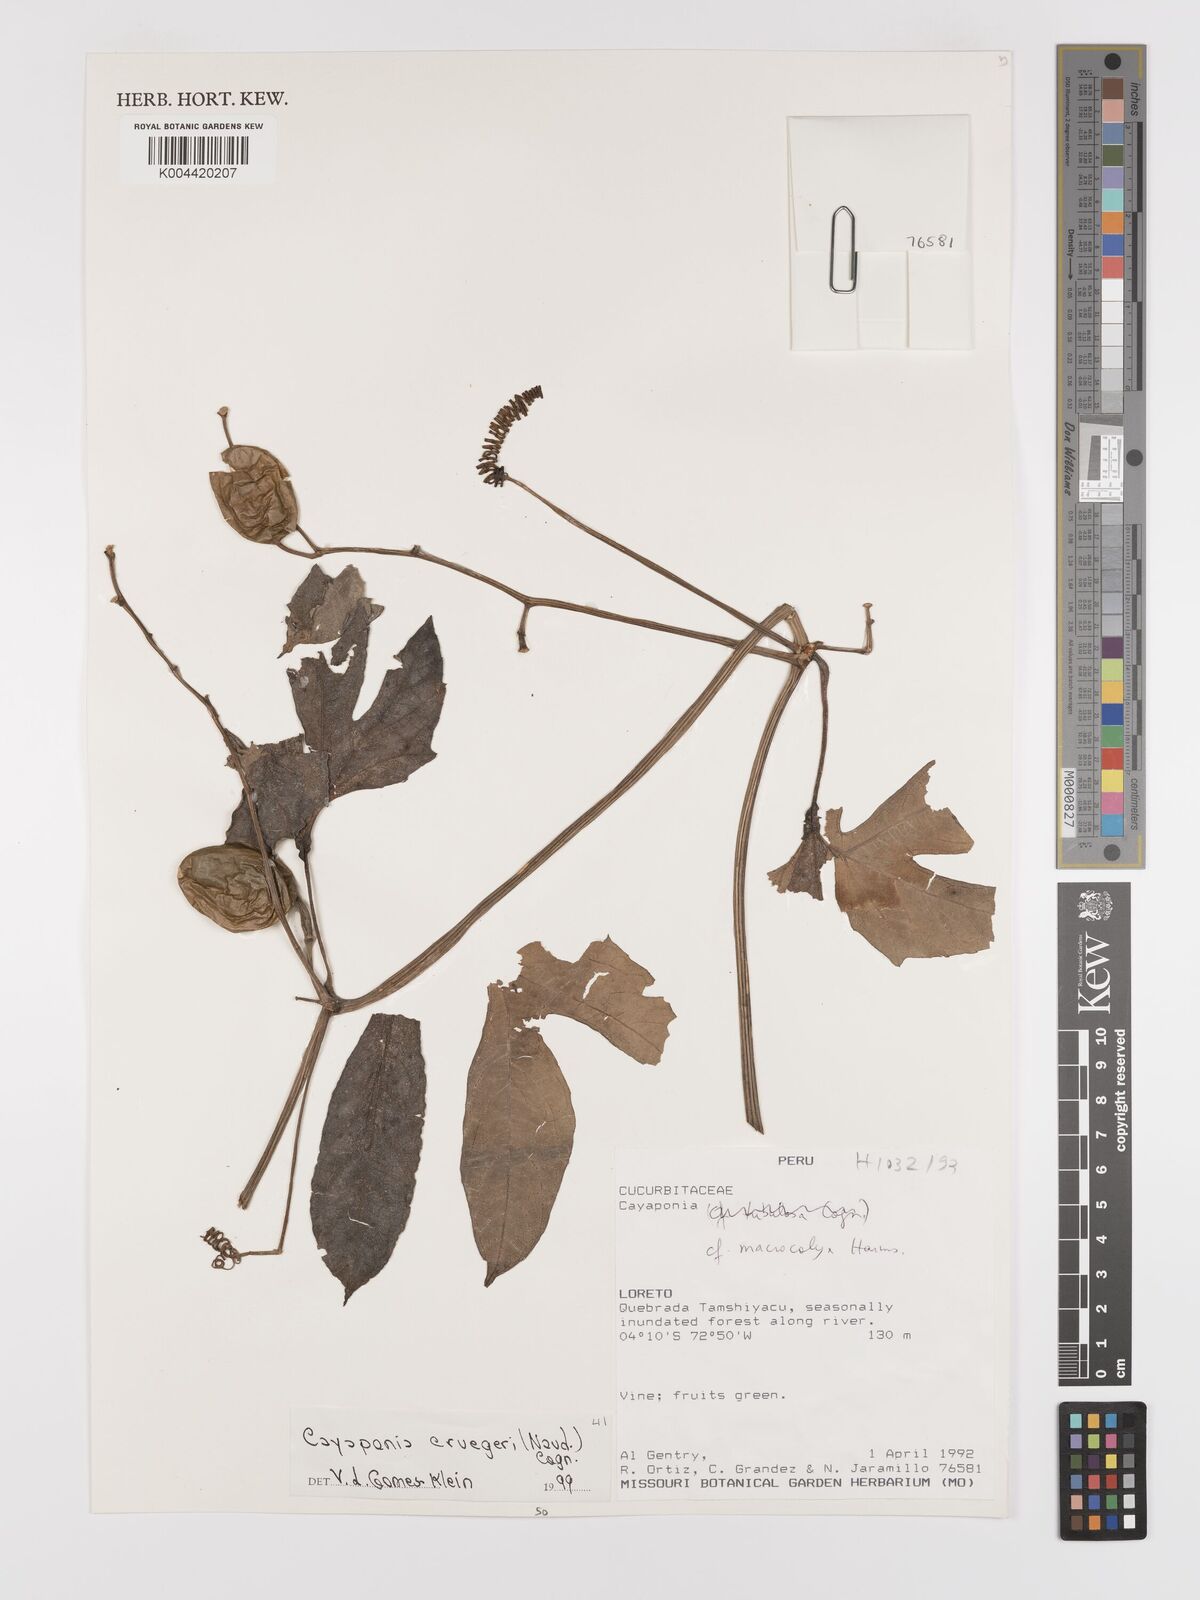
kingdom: Plantae
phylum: Tracheophyta
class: Magnoliopsida
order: Cucurbitales
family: Cucurbitaceae
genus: Cayaponia
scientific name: Cayaponia cruegeri
